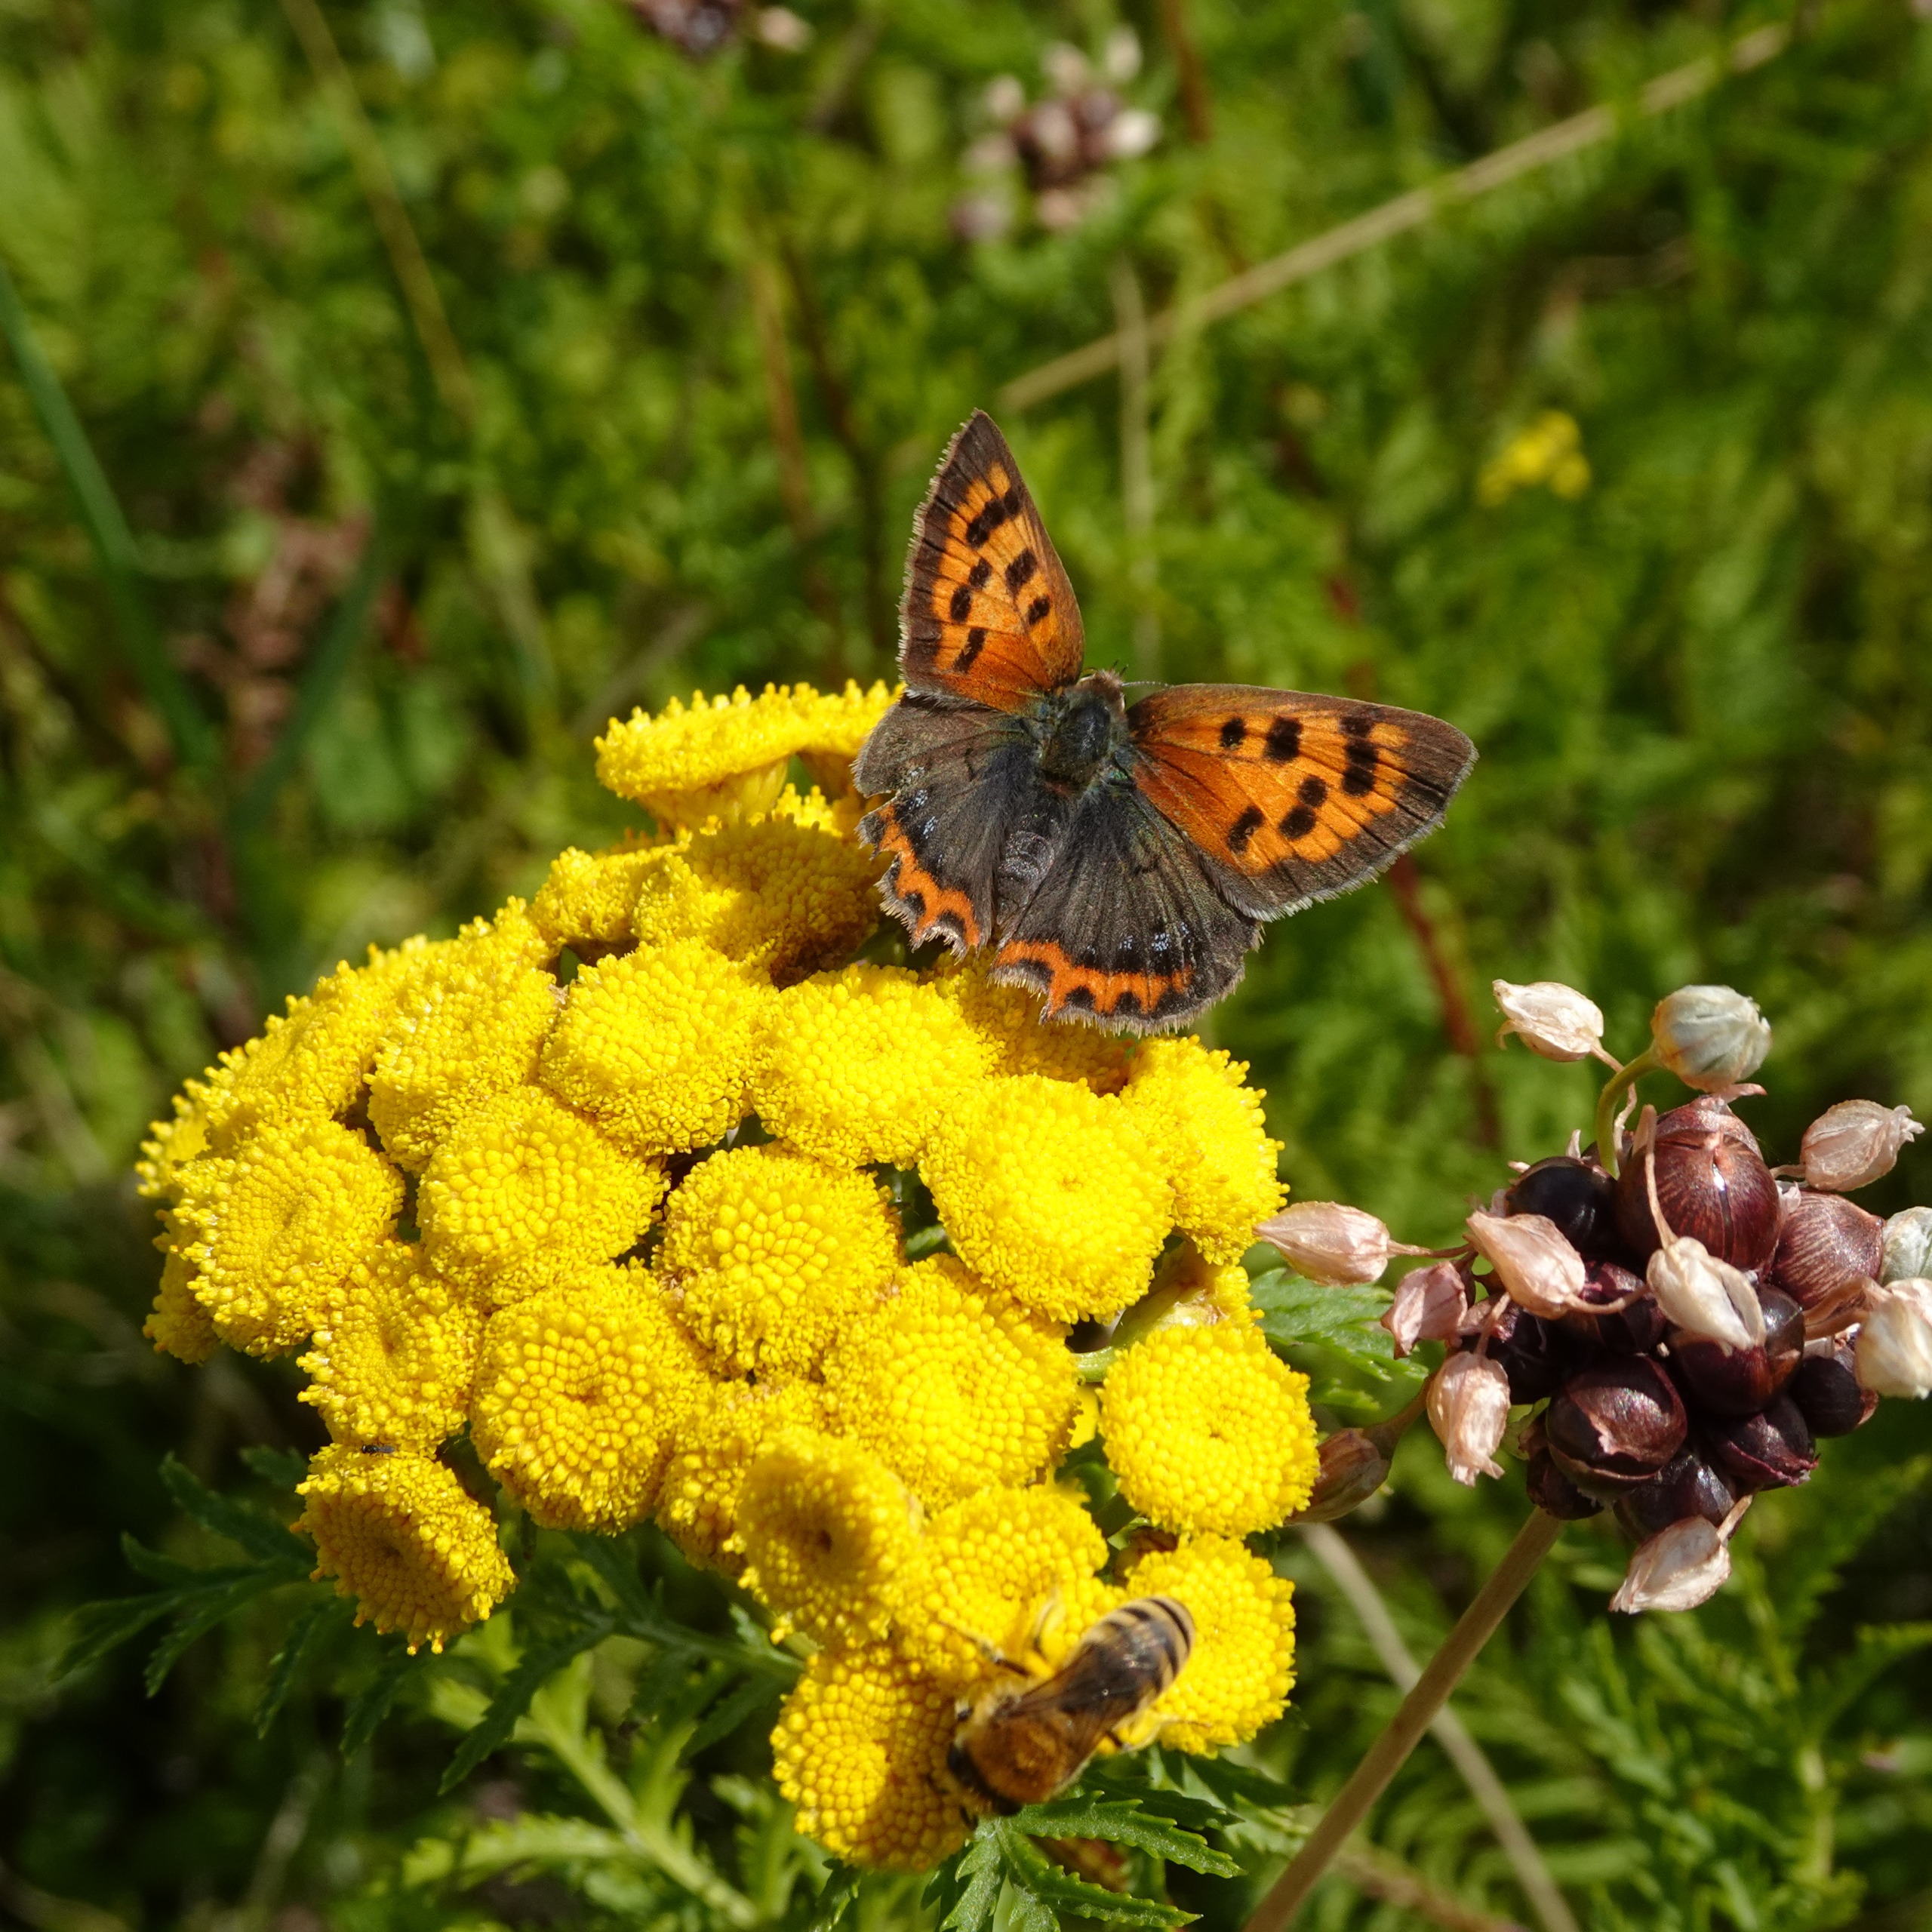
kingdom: Animalia
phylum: Arthropoda
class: Insecta
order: Lepidoptera
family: Lycaenidae
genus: Lycaena
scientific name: Lycaena phlaeas
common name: Lille ildfugl
